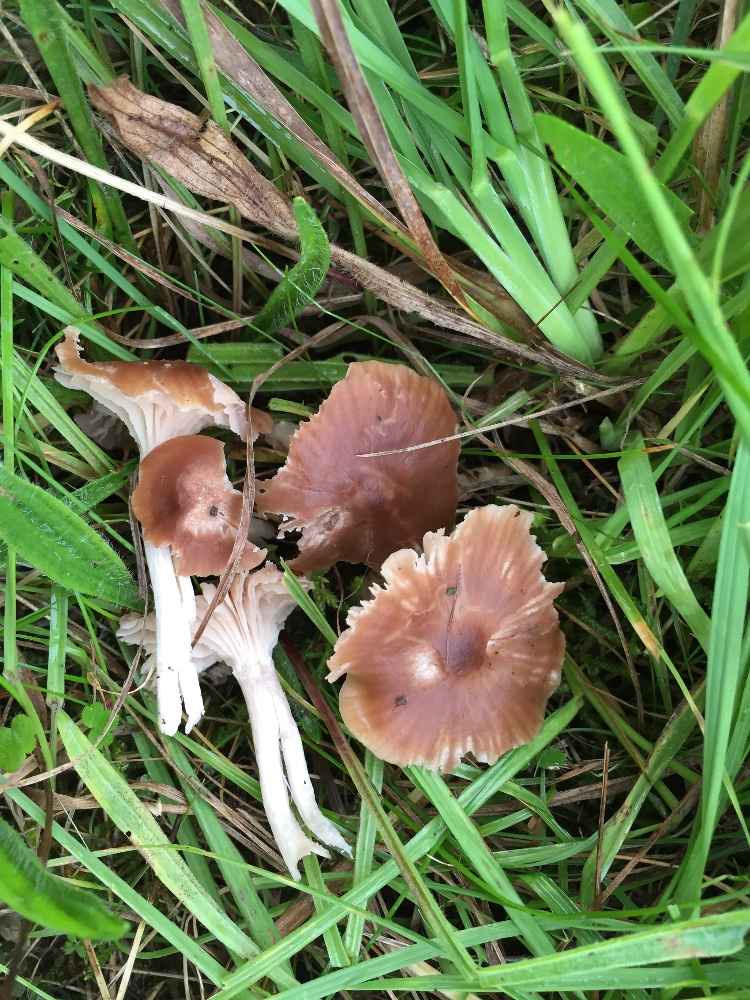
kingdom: Fungi
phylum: Basidiomycota
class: Agaricomycetes
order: Agaricales
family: Hygrophoraceae
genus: Cuphophyllus
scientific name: Cuphophyllus colemannianus
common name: rødbrun vokshat
